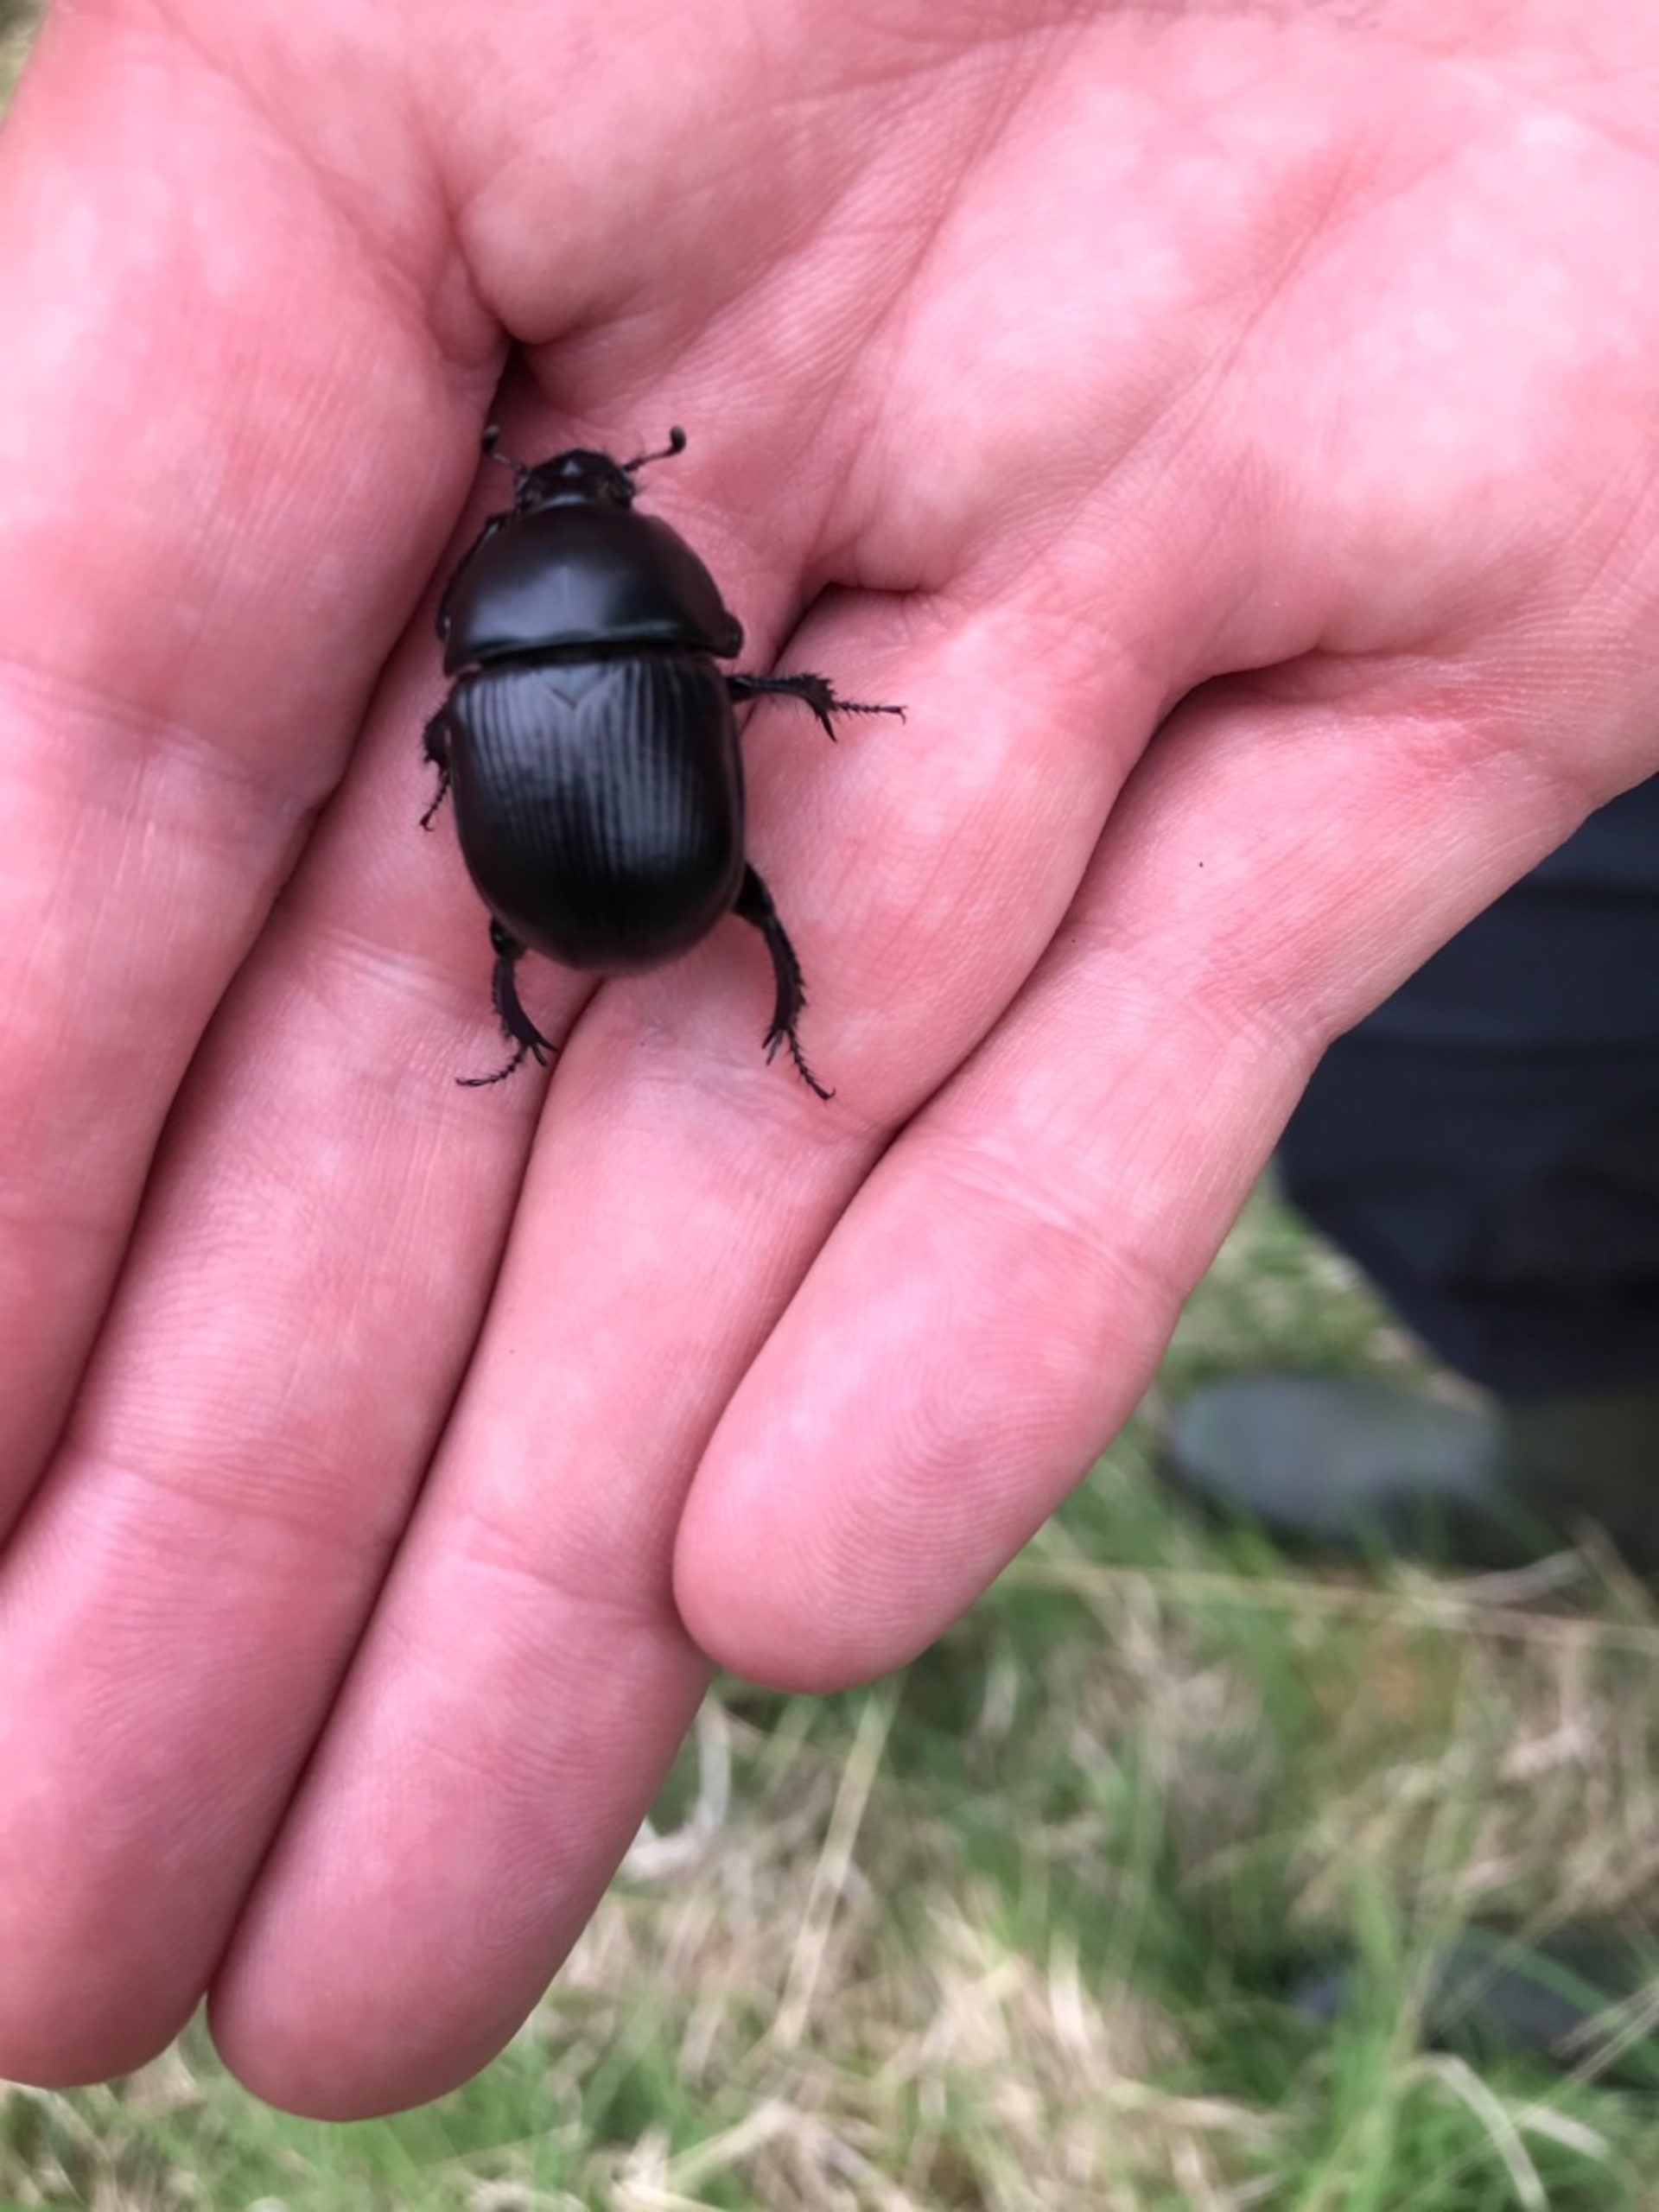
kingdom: Animalia
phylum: Arthropoda
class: Insecta
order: Coleoptera
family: Geotrupidae
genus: Geotrupes
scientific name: Geotrupes spiniger
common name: Markskarnbasse
